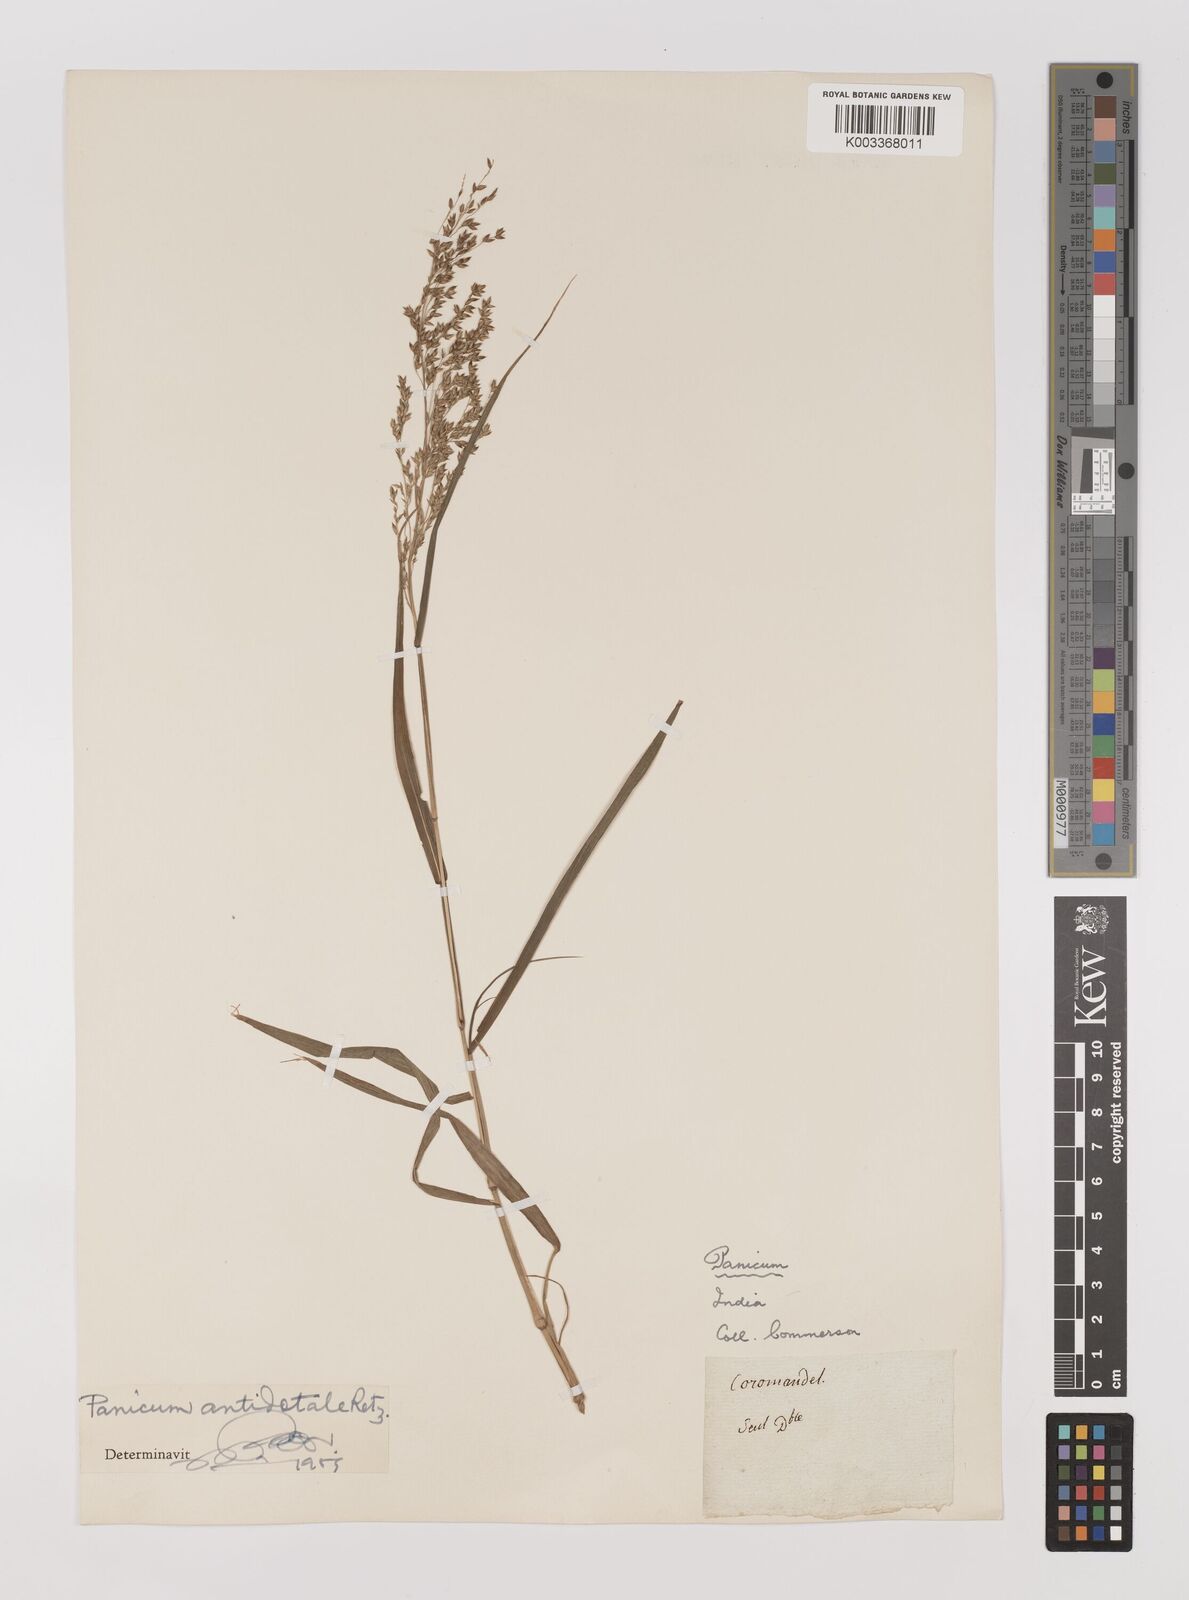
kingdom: Plantae
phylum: Tracheophyta
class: Liliopsida
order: Poales
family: Poaceae
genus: Panicum
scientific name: Panicum antidotale
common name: Blue panicum
